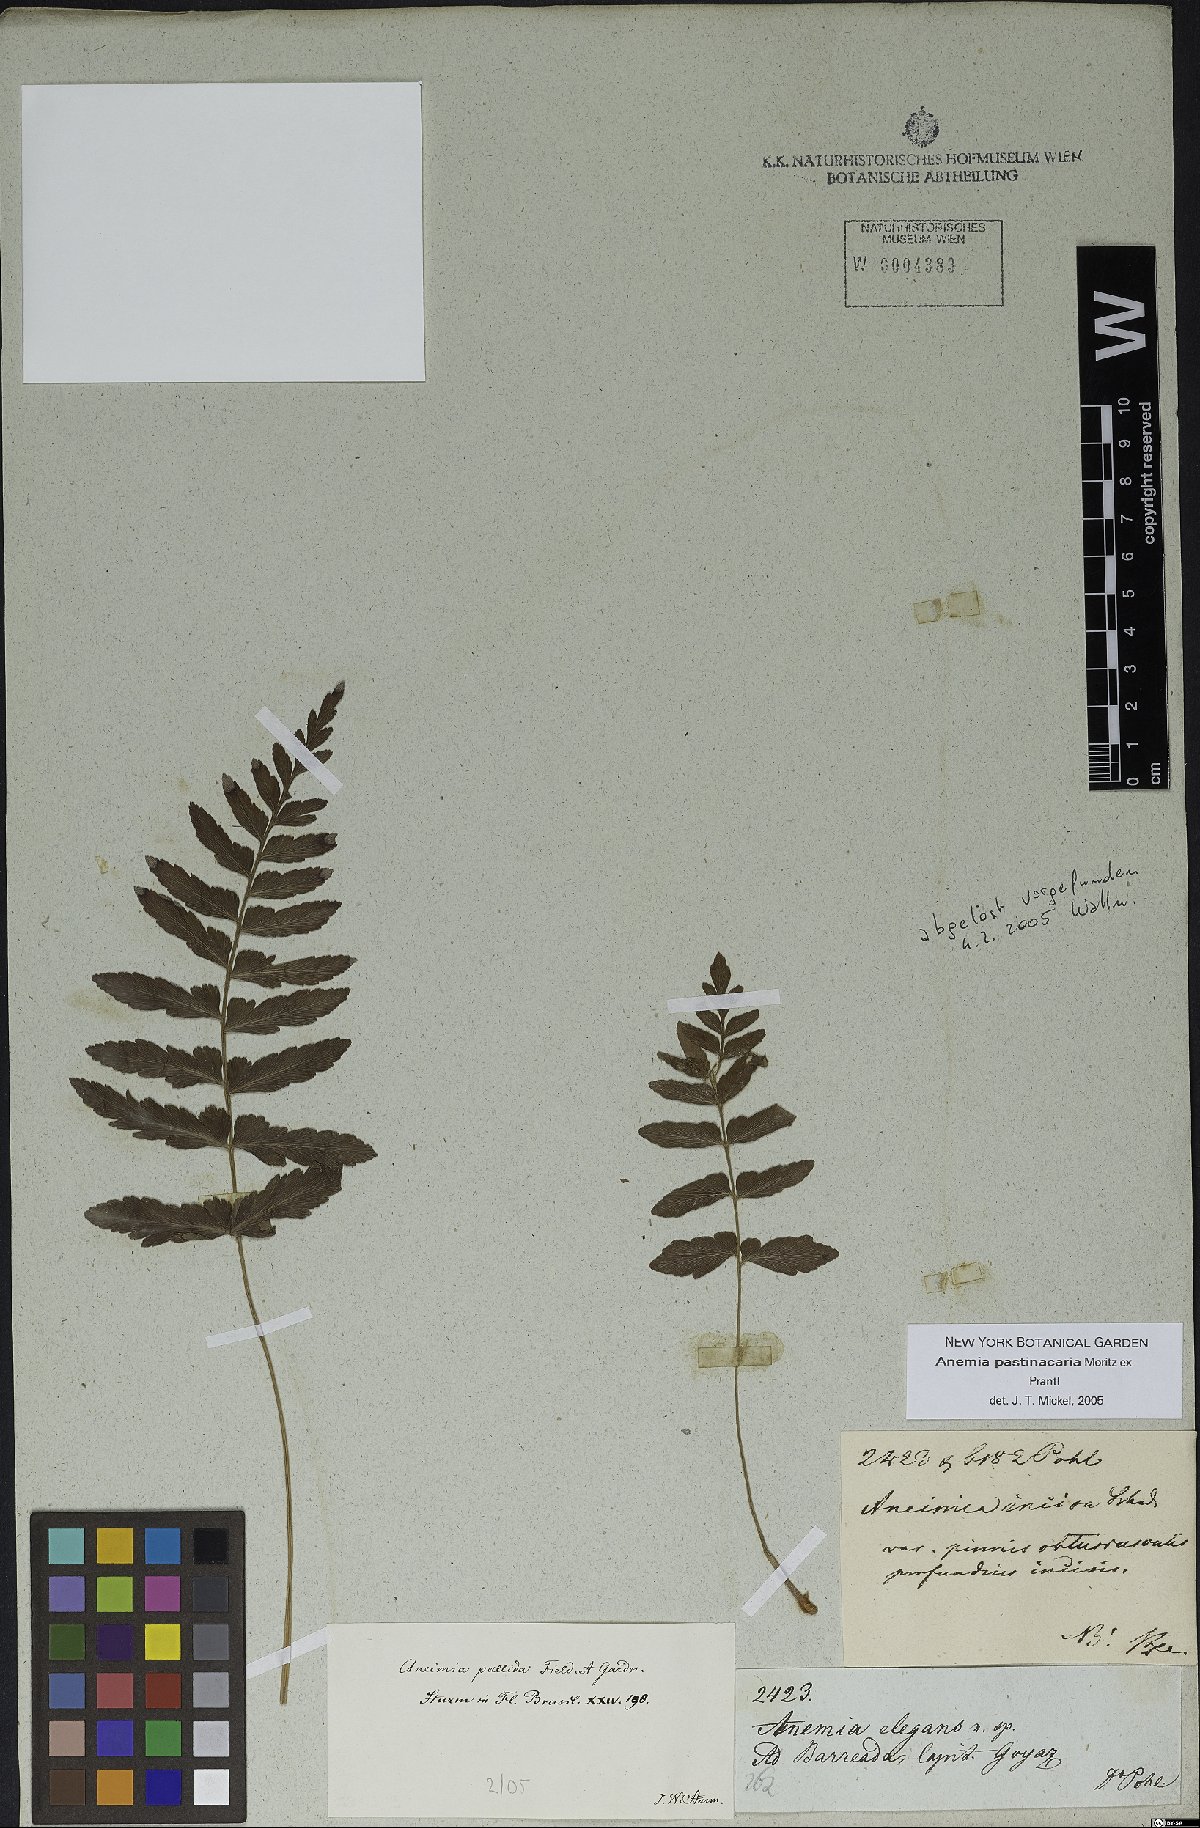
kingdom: Plantae
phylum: Tracheophyta
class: Polypodiopsida
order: Schizaeales
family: Anemiaceae
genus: Anemia
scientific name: Anemia hispida
